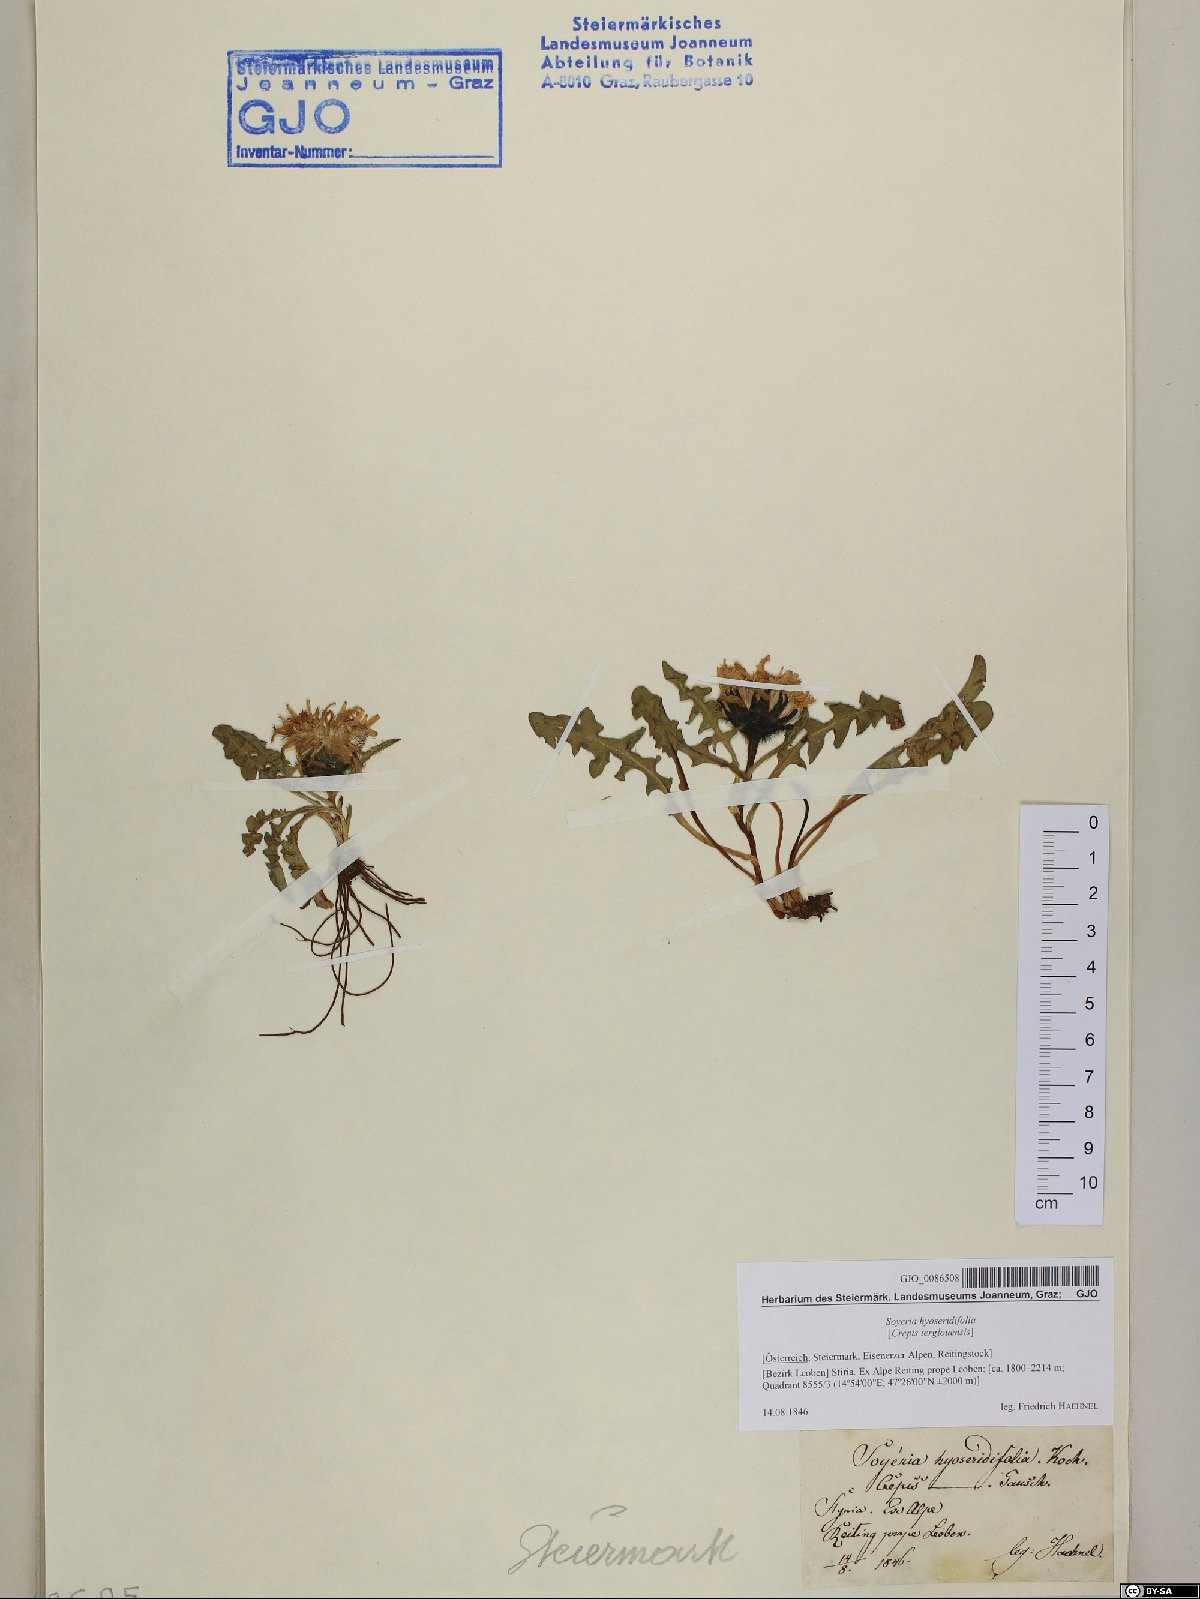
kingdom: Plantae
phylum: Tracheophyta
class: Magnoliopsida
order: Asterales
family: Asteraceae
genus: Crepis
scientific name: Crepis terglouensis
